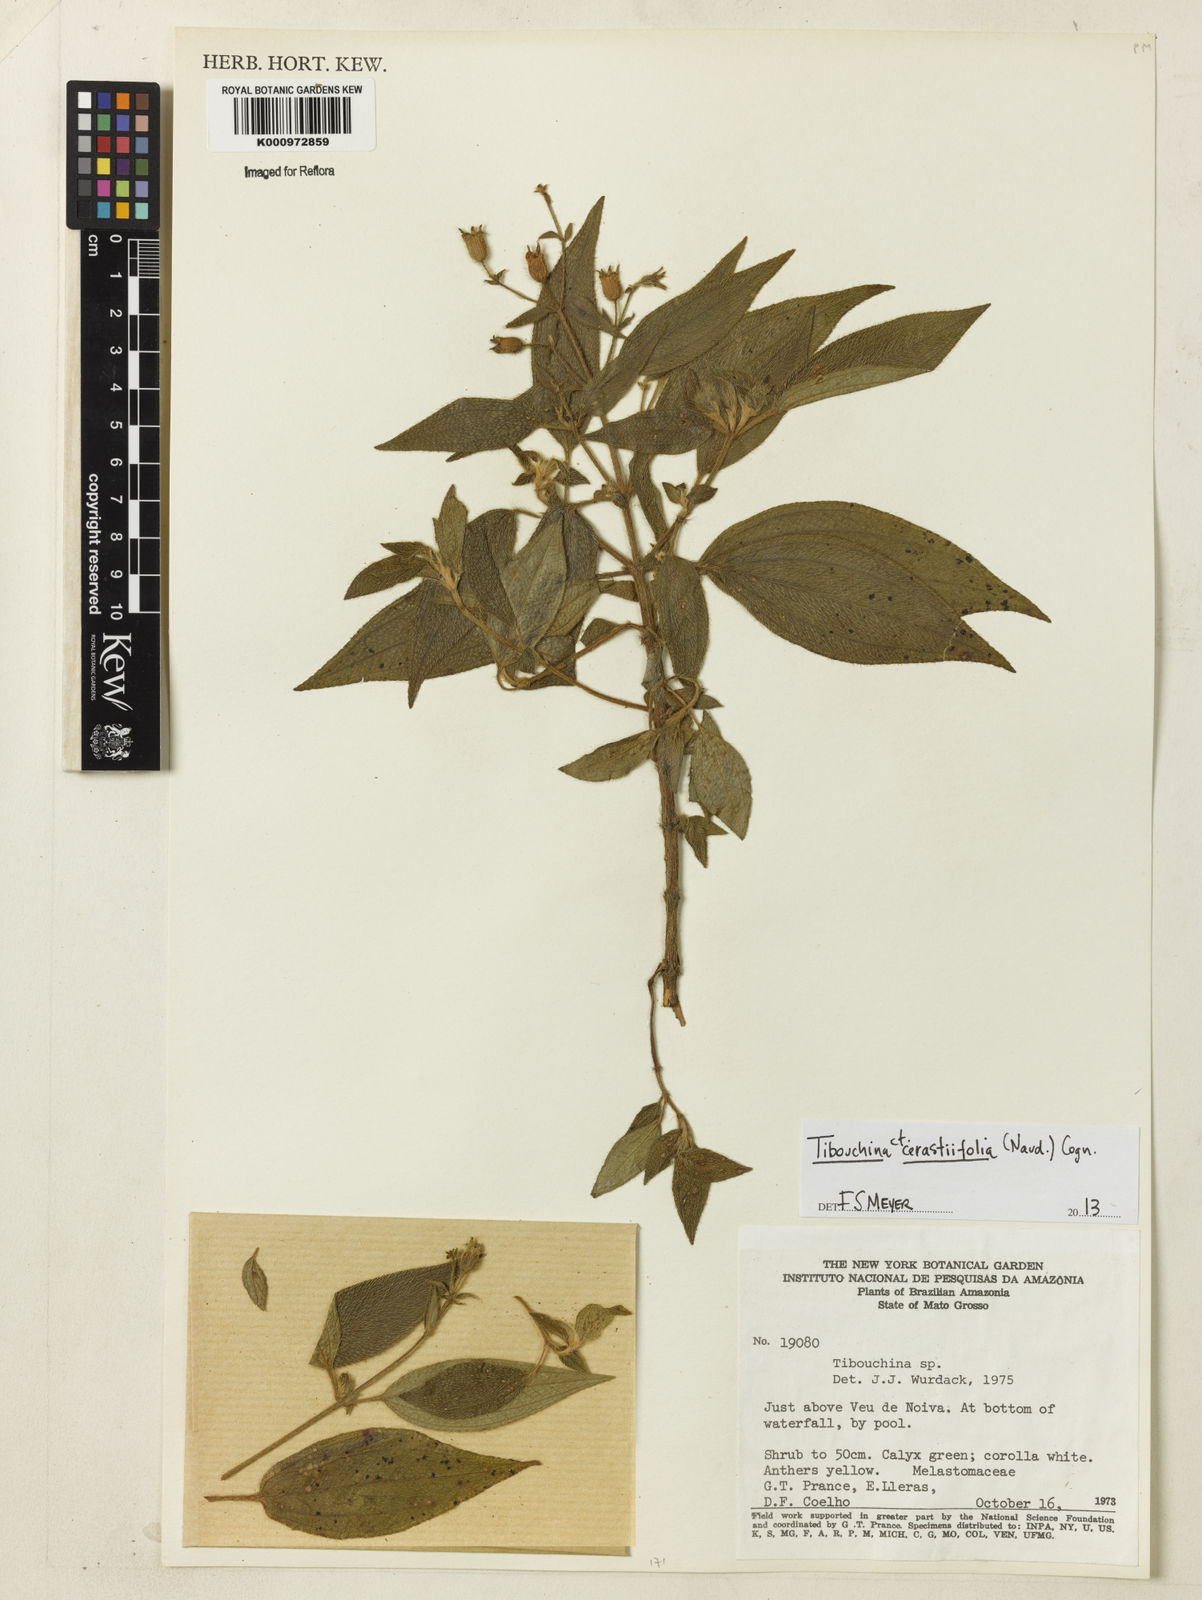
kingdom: Plantae
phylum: Tracheophyta
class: Magnoliopsida
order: Myrtales
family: Melastomataceae
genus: Chaetogastra
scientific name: Chaetogastra cerastifolia
